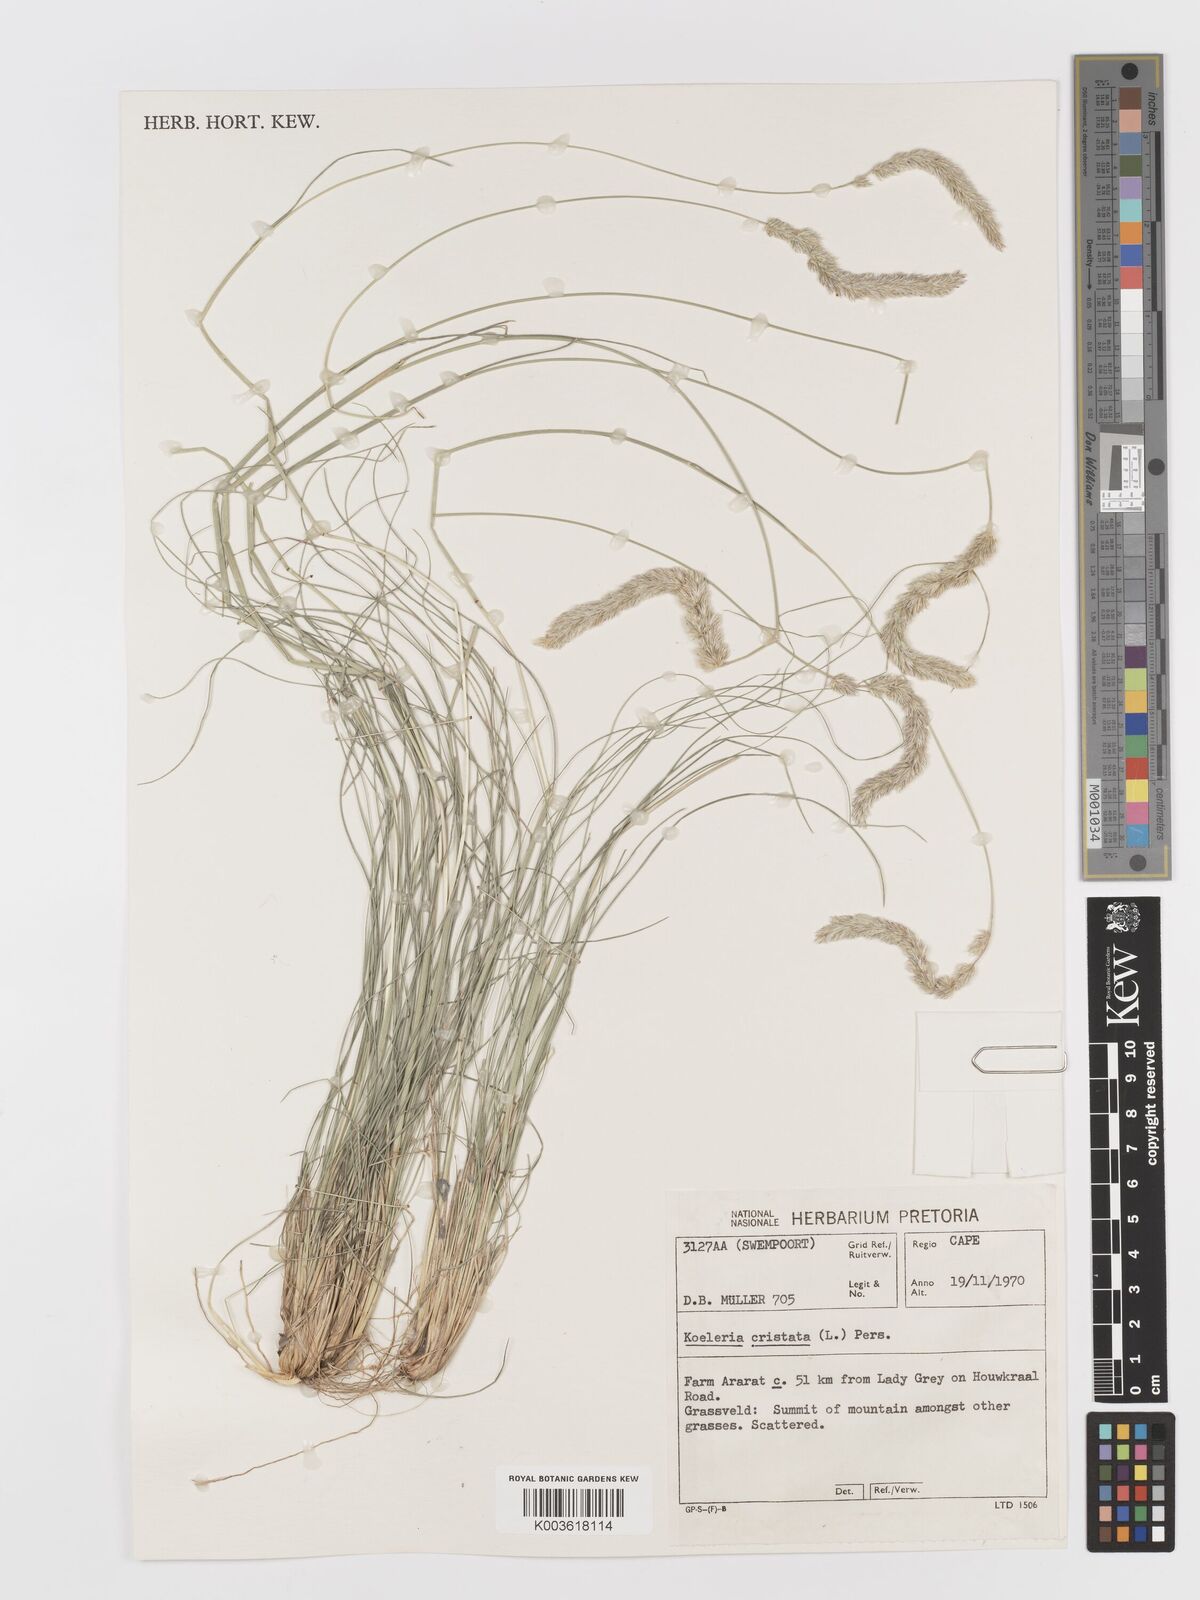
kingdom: Plantae
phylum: Tracheophyta
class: Liliopsida
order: Poales
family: Poaceae
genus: Koeleria
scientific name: Koeleria capensis
